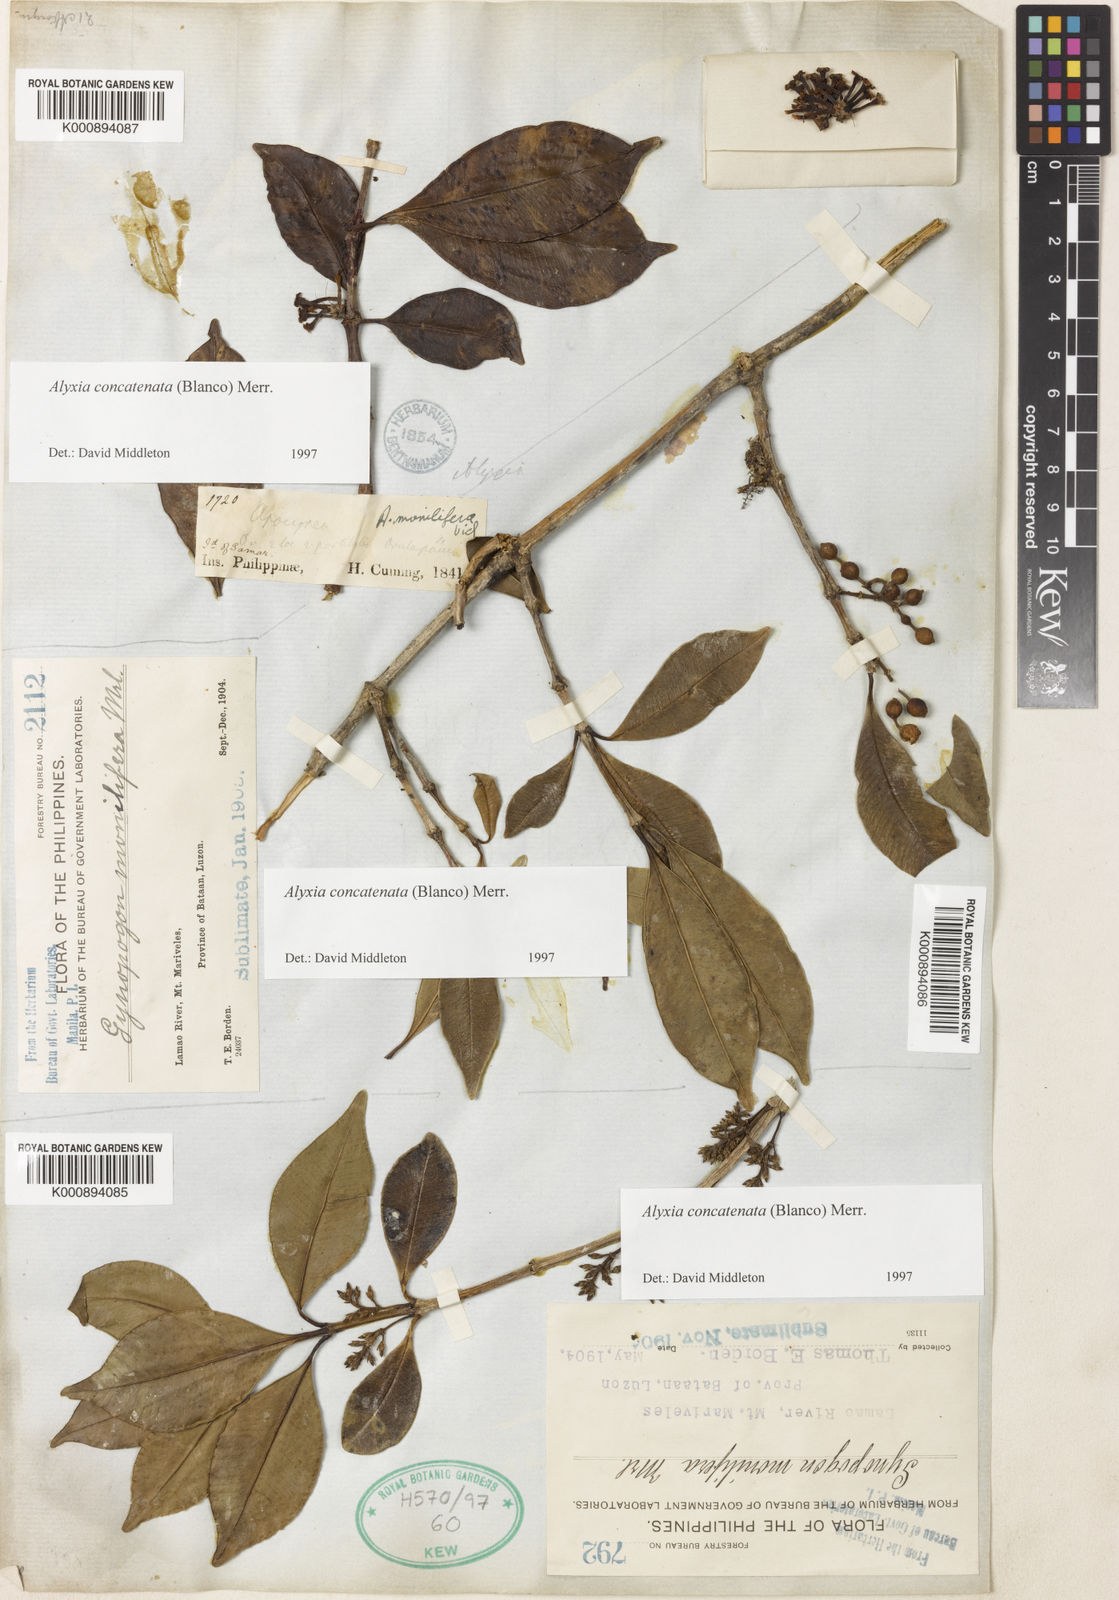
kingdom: Plantae
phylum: Tracheophyta
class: Magnoliopsida
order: Gentianales
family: Apocynaceae
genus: Alyxia
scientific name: Alyxia concatenata
